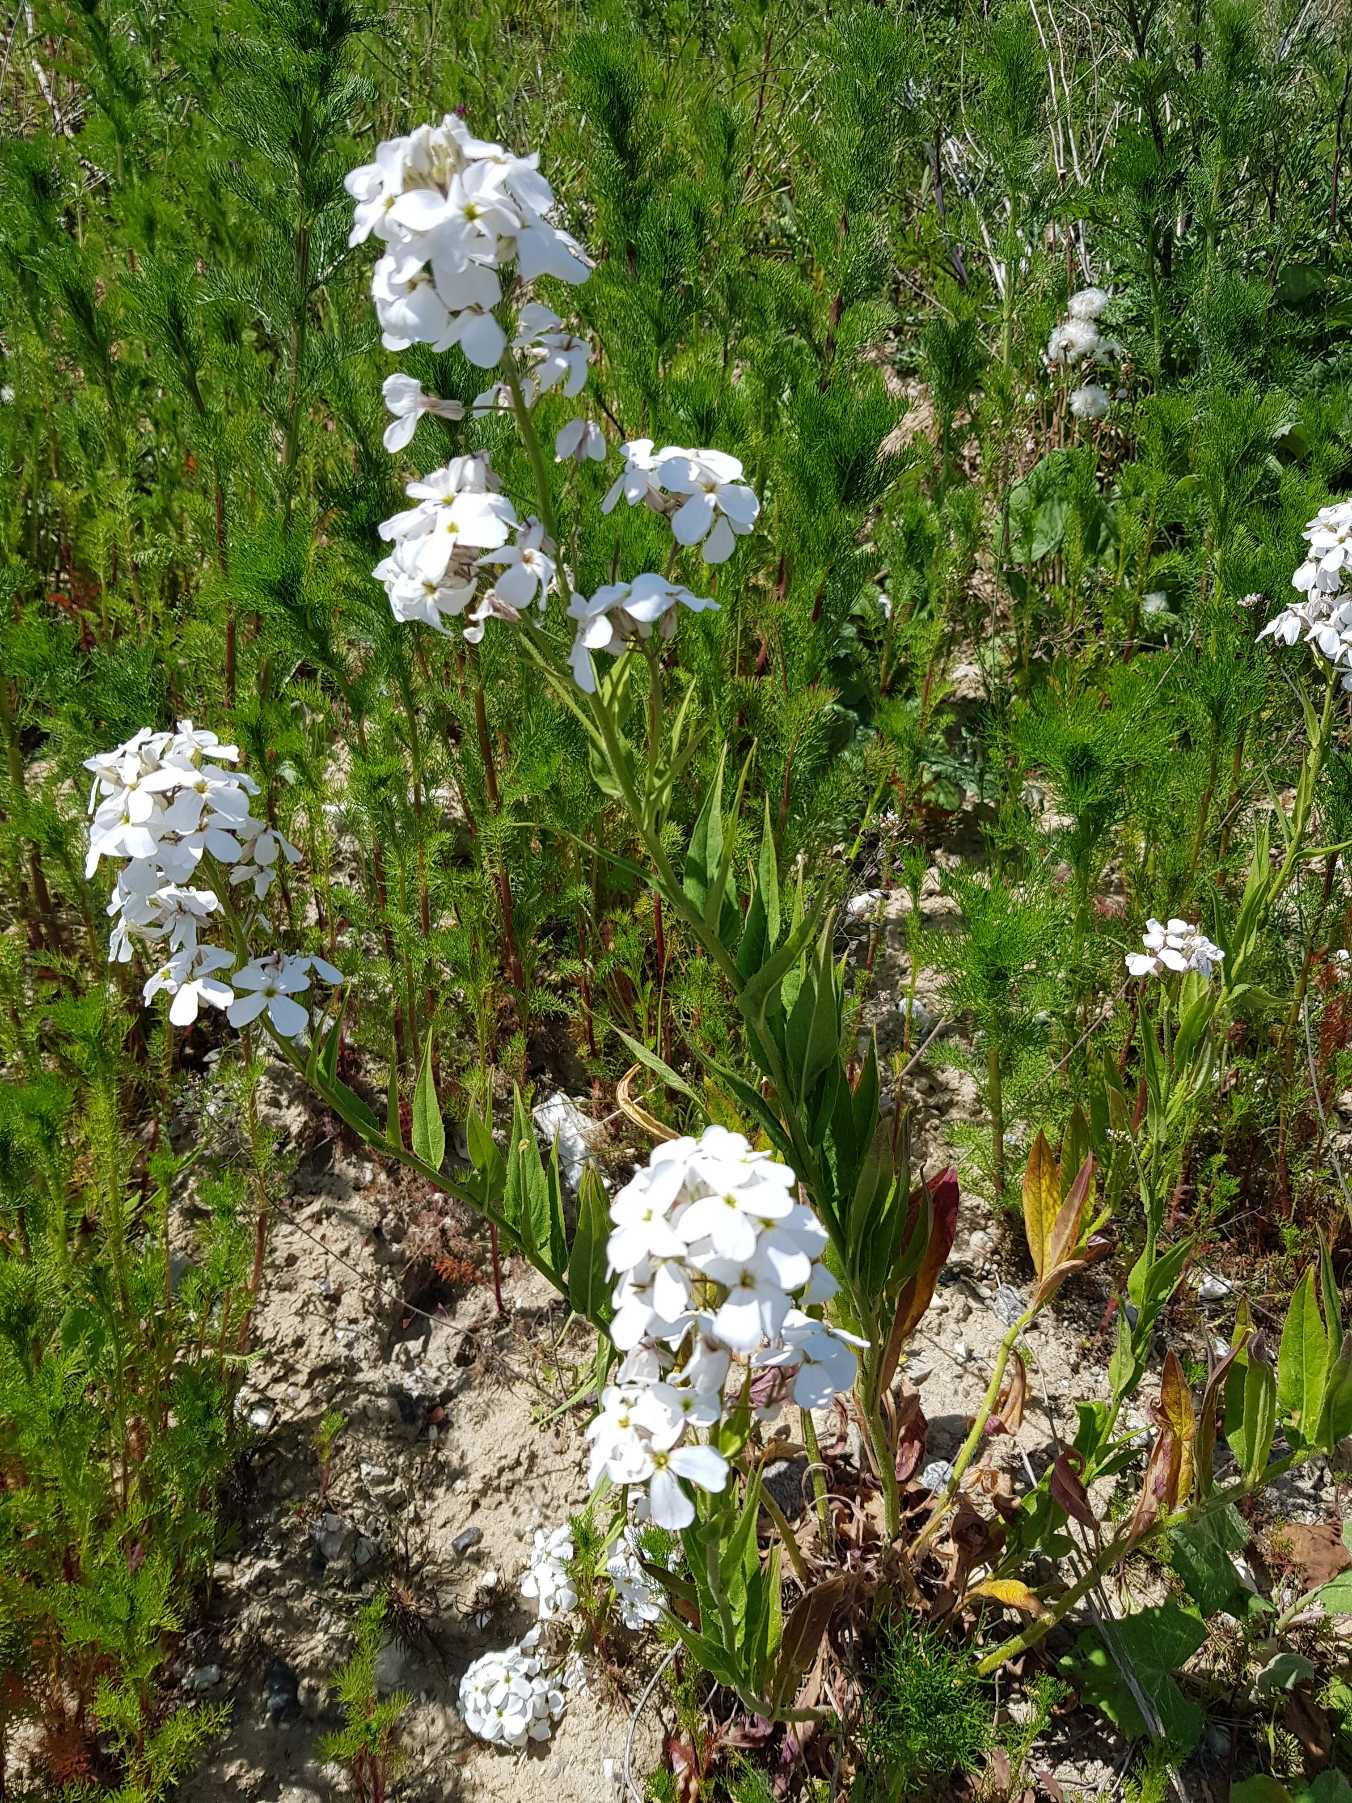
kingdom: Plantae
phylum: Tracheophyta
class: Magnoliopsida
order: Brassicales
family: Brassicaceae
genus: Hesperis
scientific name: Hesperis matronalis
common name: Aftenstjerne
